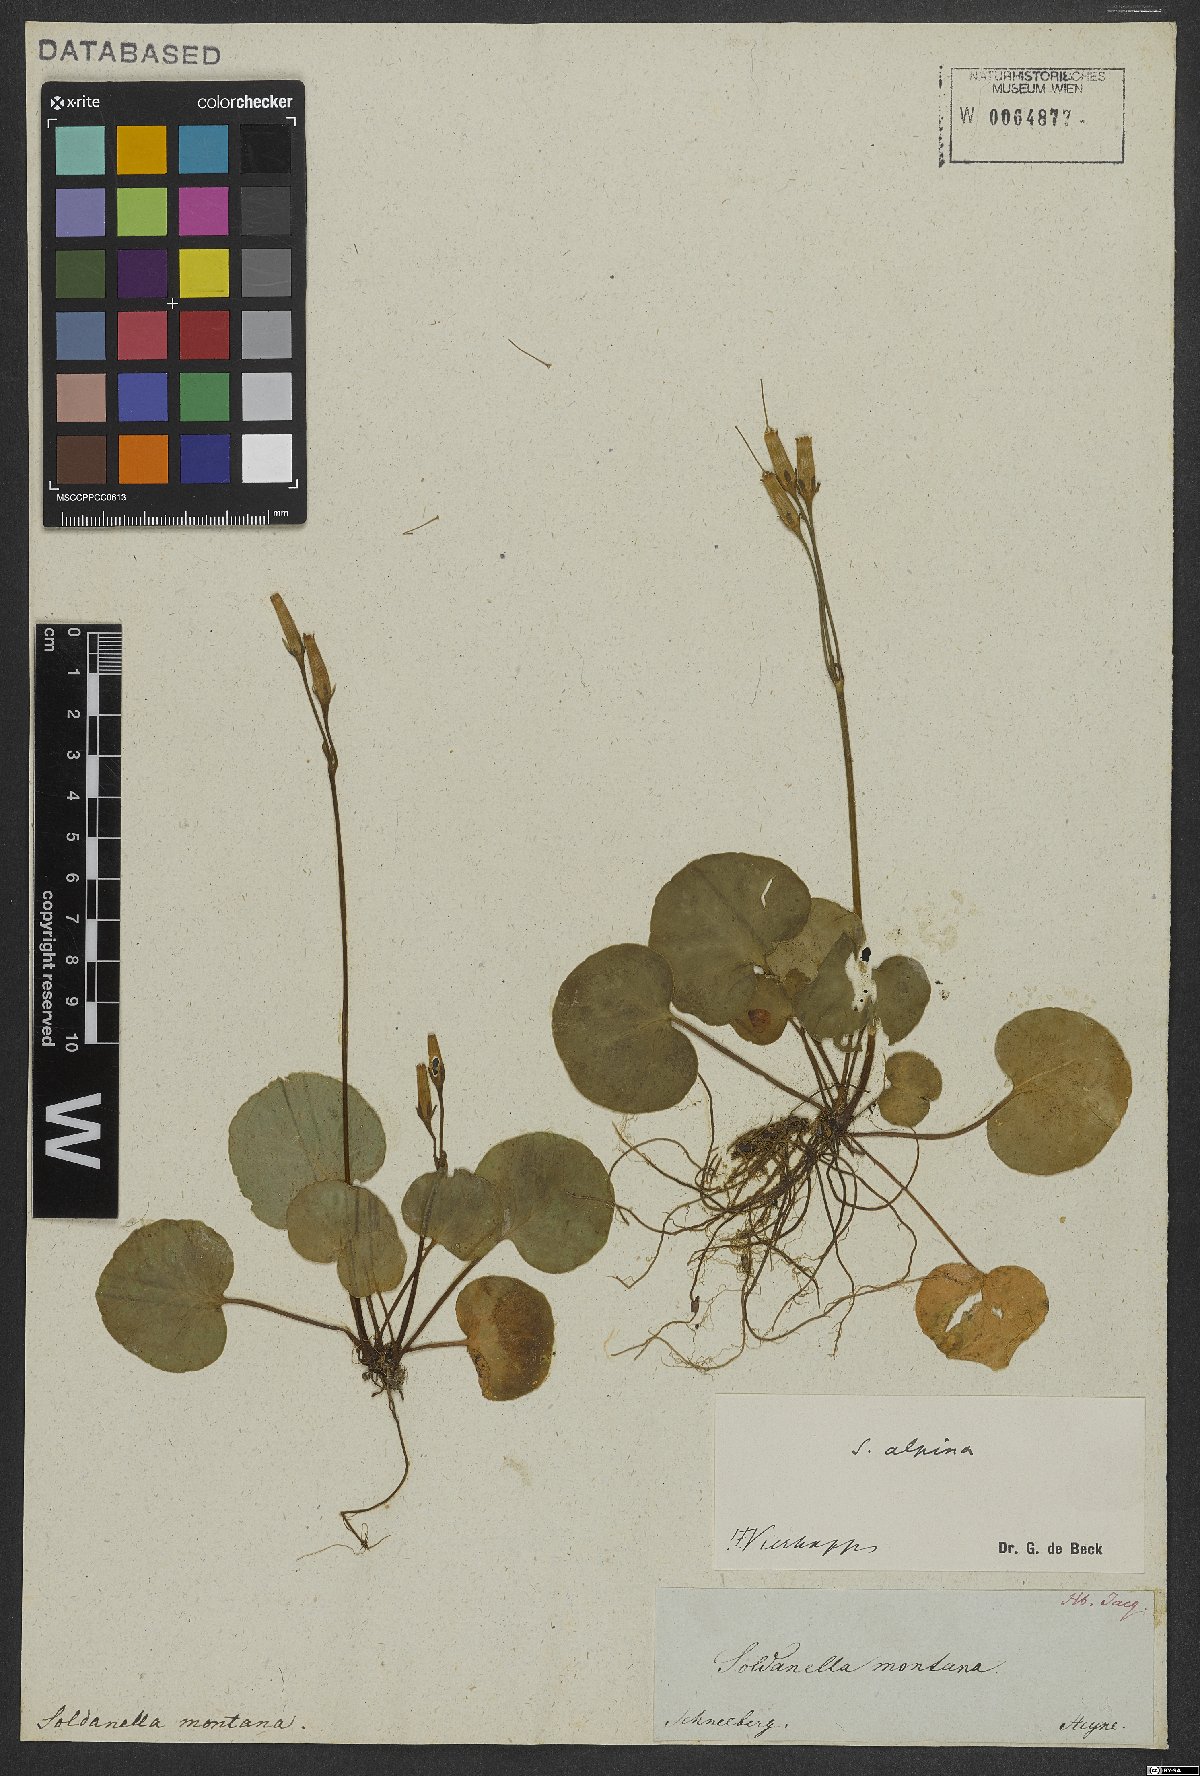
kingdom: Plantae
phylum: Tracheophyta
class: Magnoliopsida
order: Ericales
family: Primulaceae
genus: Soldanella
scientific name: Soldanella alpina
